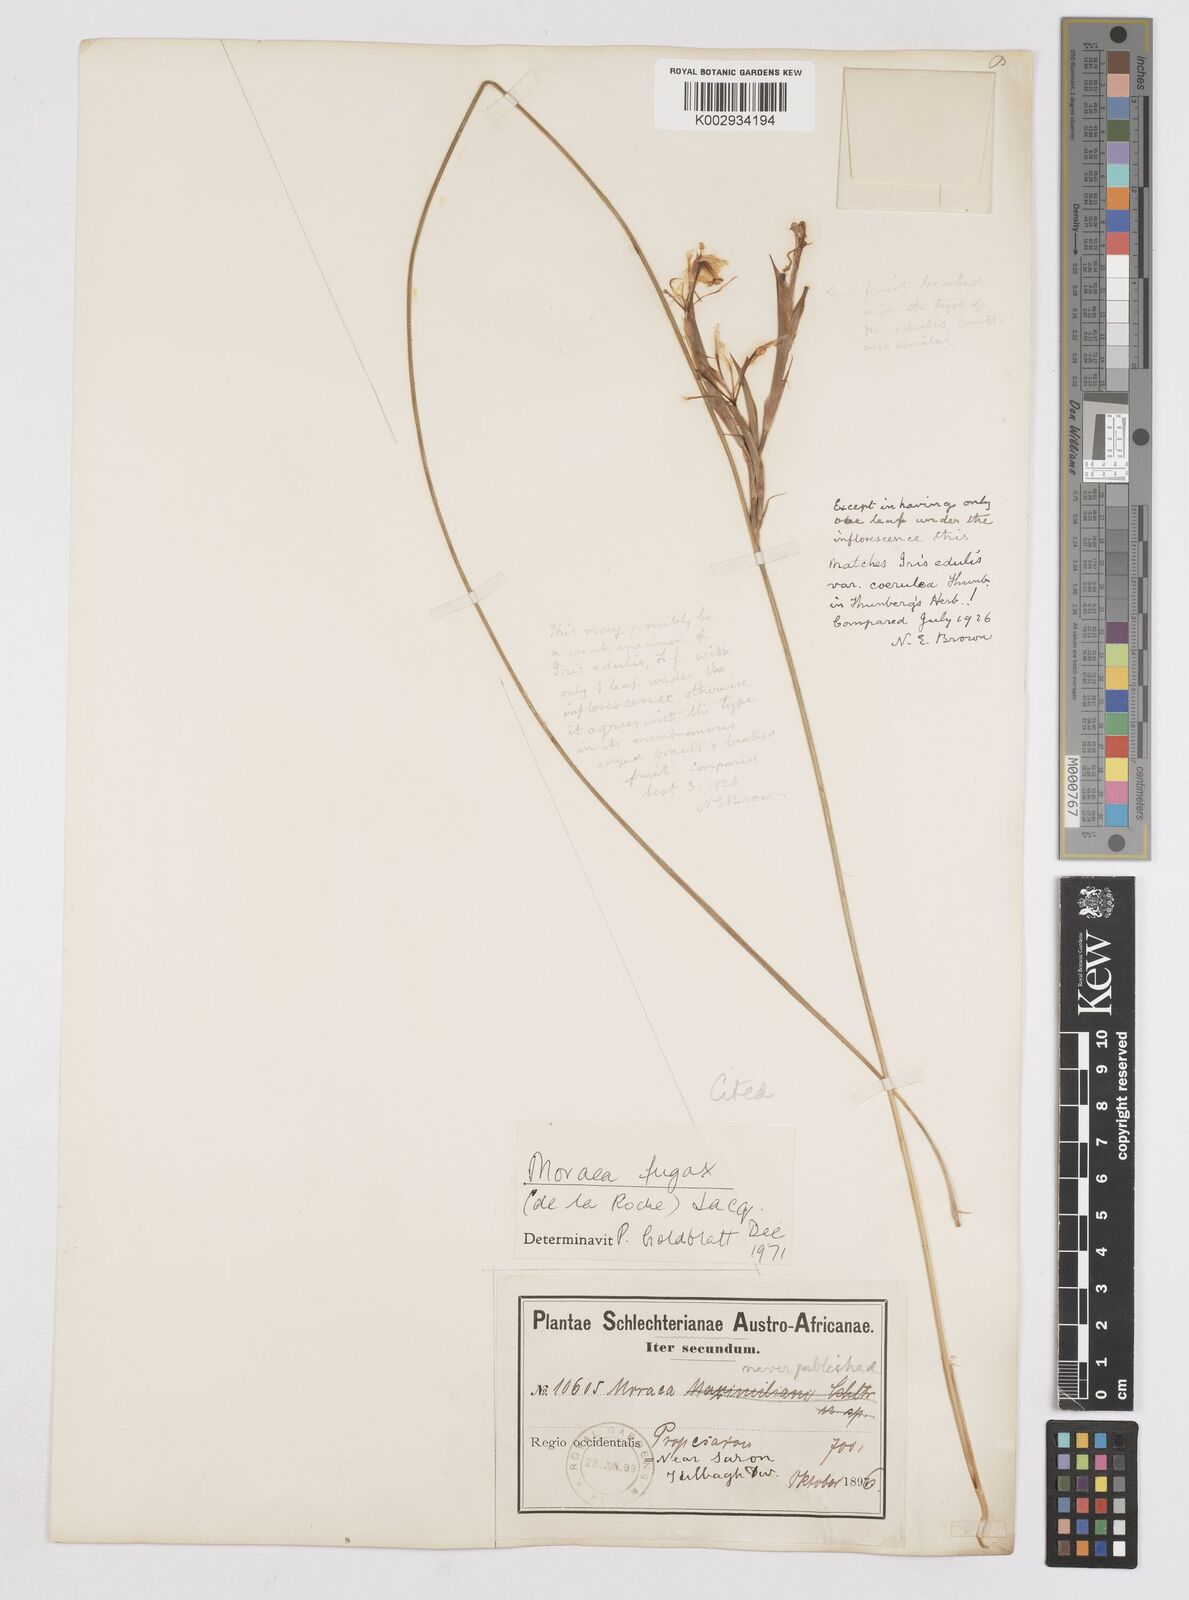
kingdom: Plantae
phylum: Tracheophyta
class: Liliopsida
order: Asparagales
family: Iridaceae
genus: Moraea
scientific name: Moraea fugax
